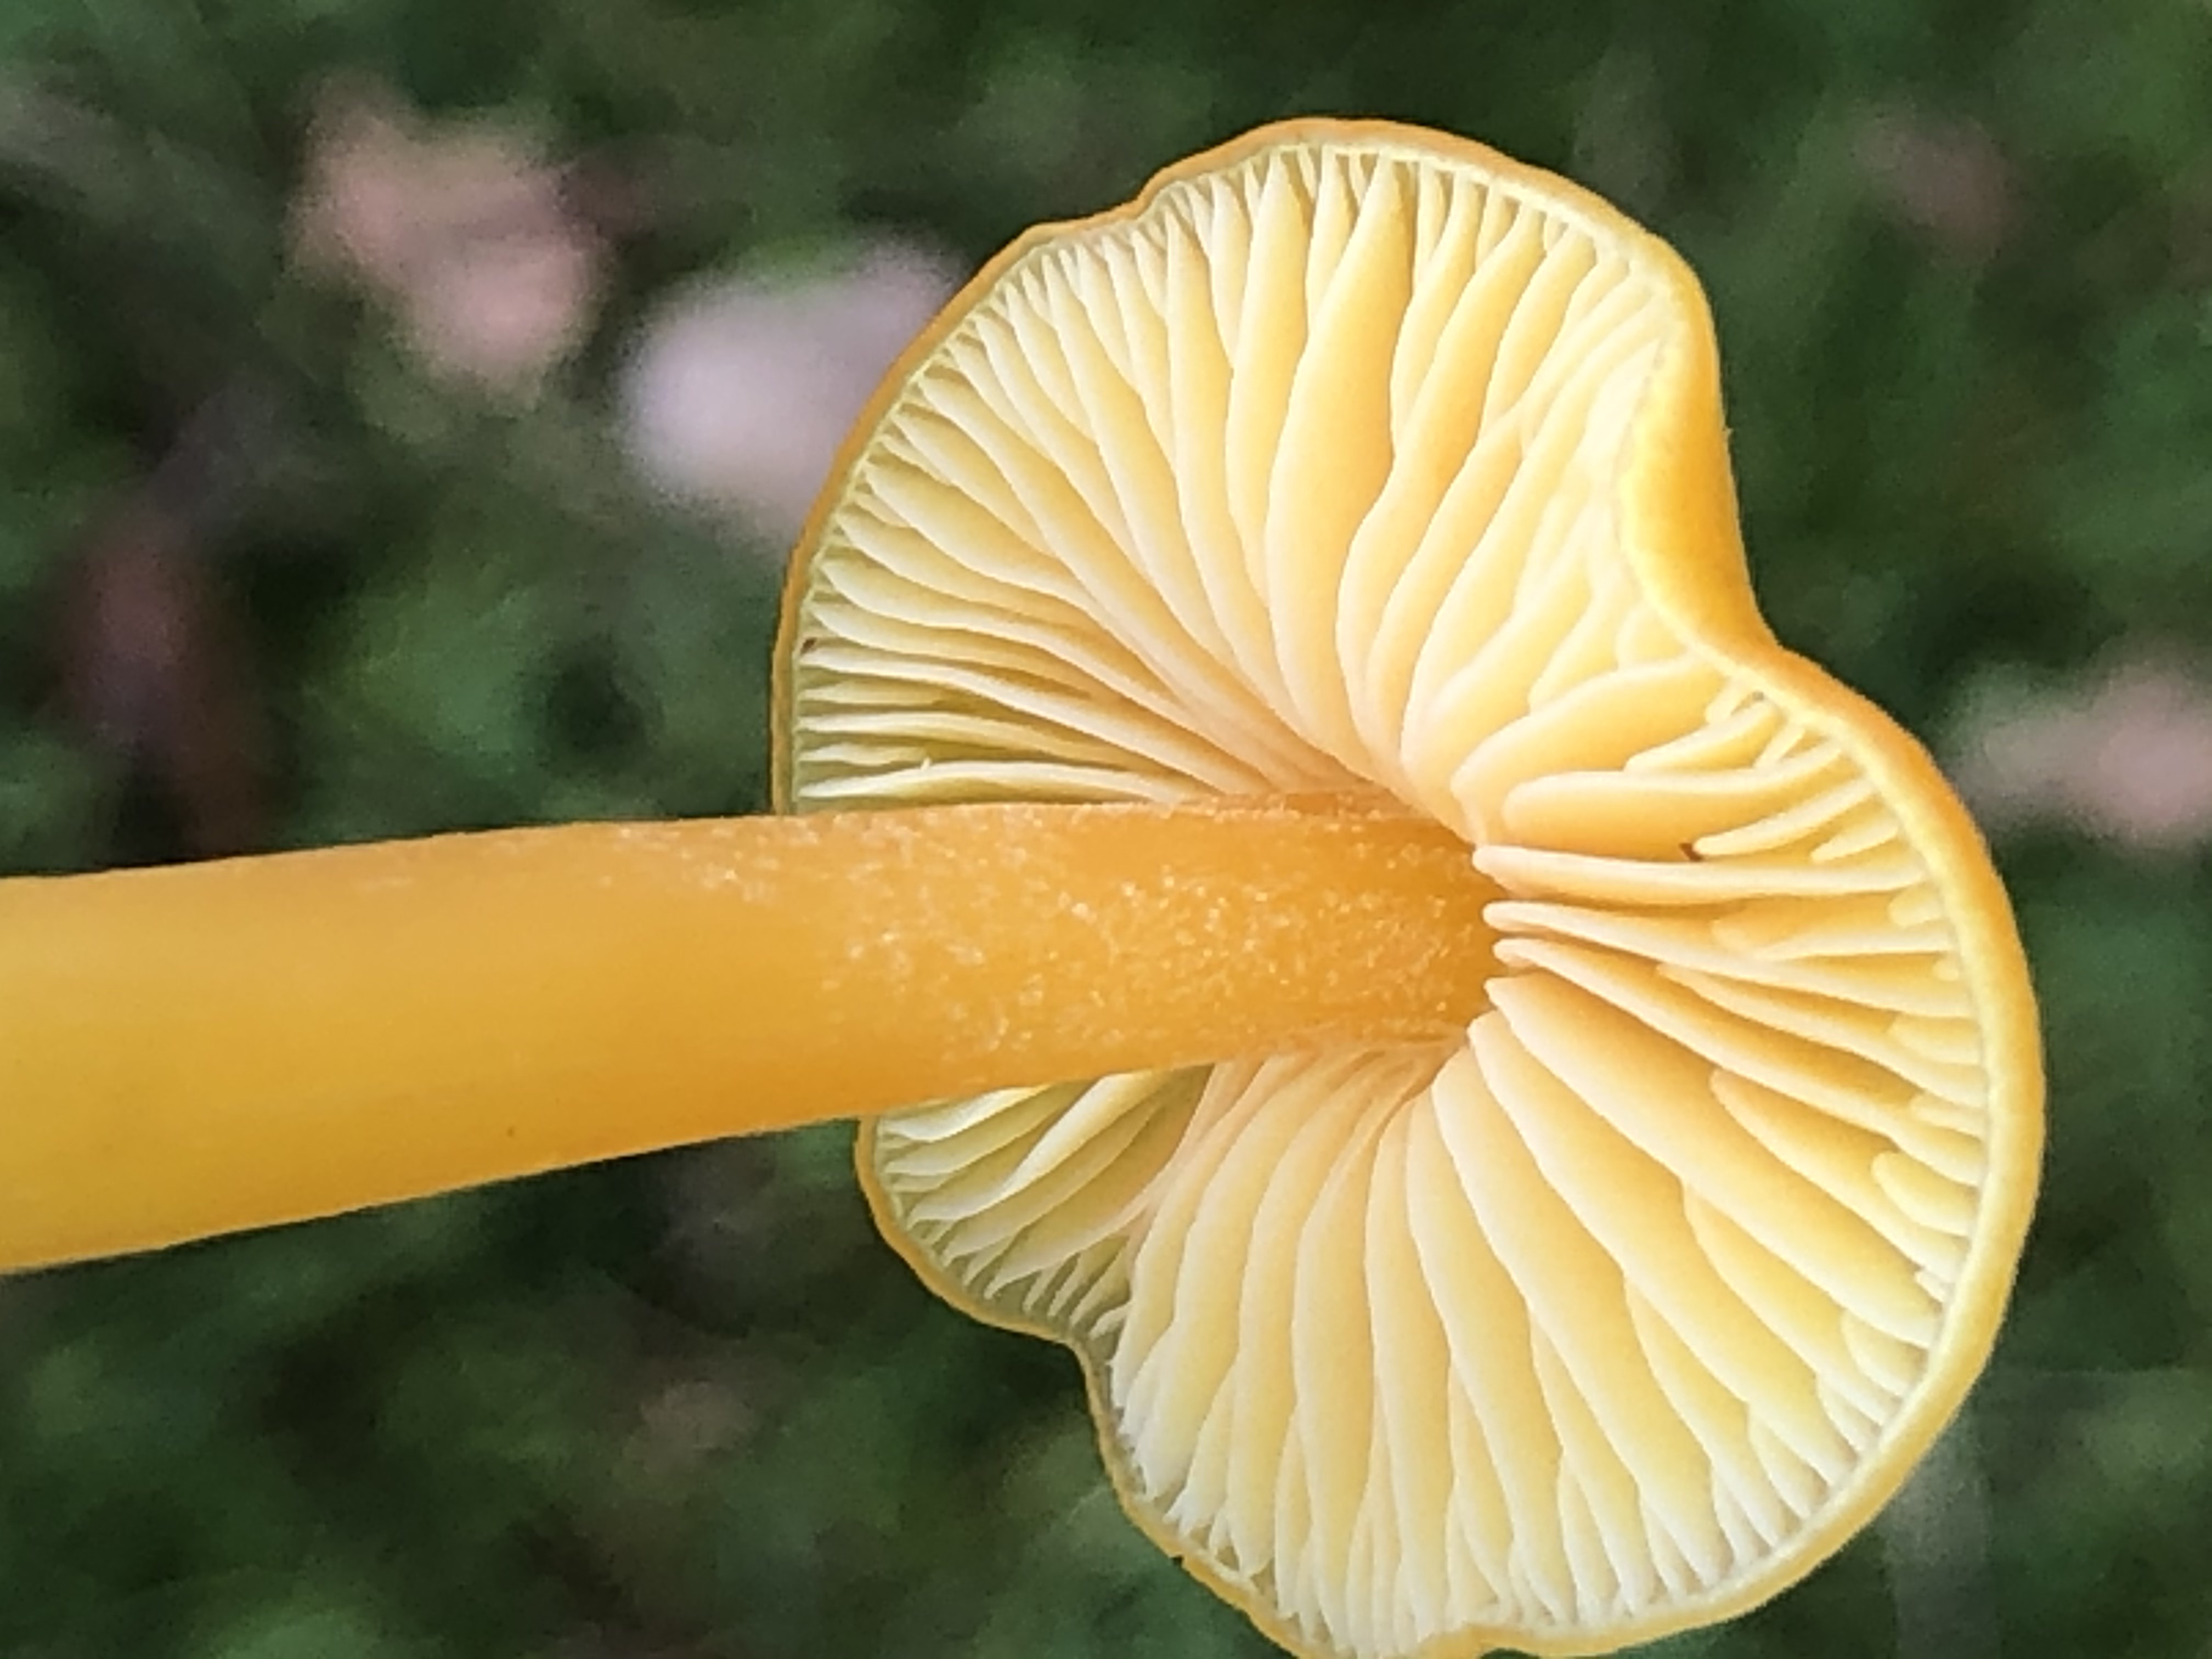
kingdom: Fungi
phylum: Basidiomycota
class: Agaricomycetes
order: Agaricales
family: Hygrophoraceae
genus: Hygrocybe
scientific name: Hygrocybe chlorophana
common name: gul vokshat
